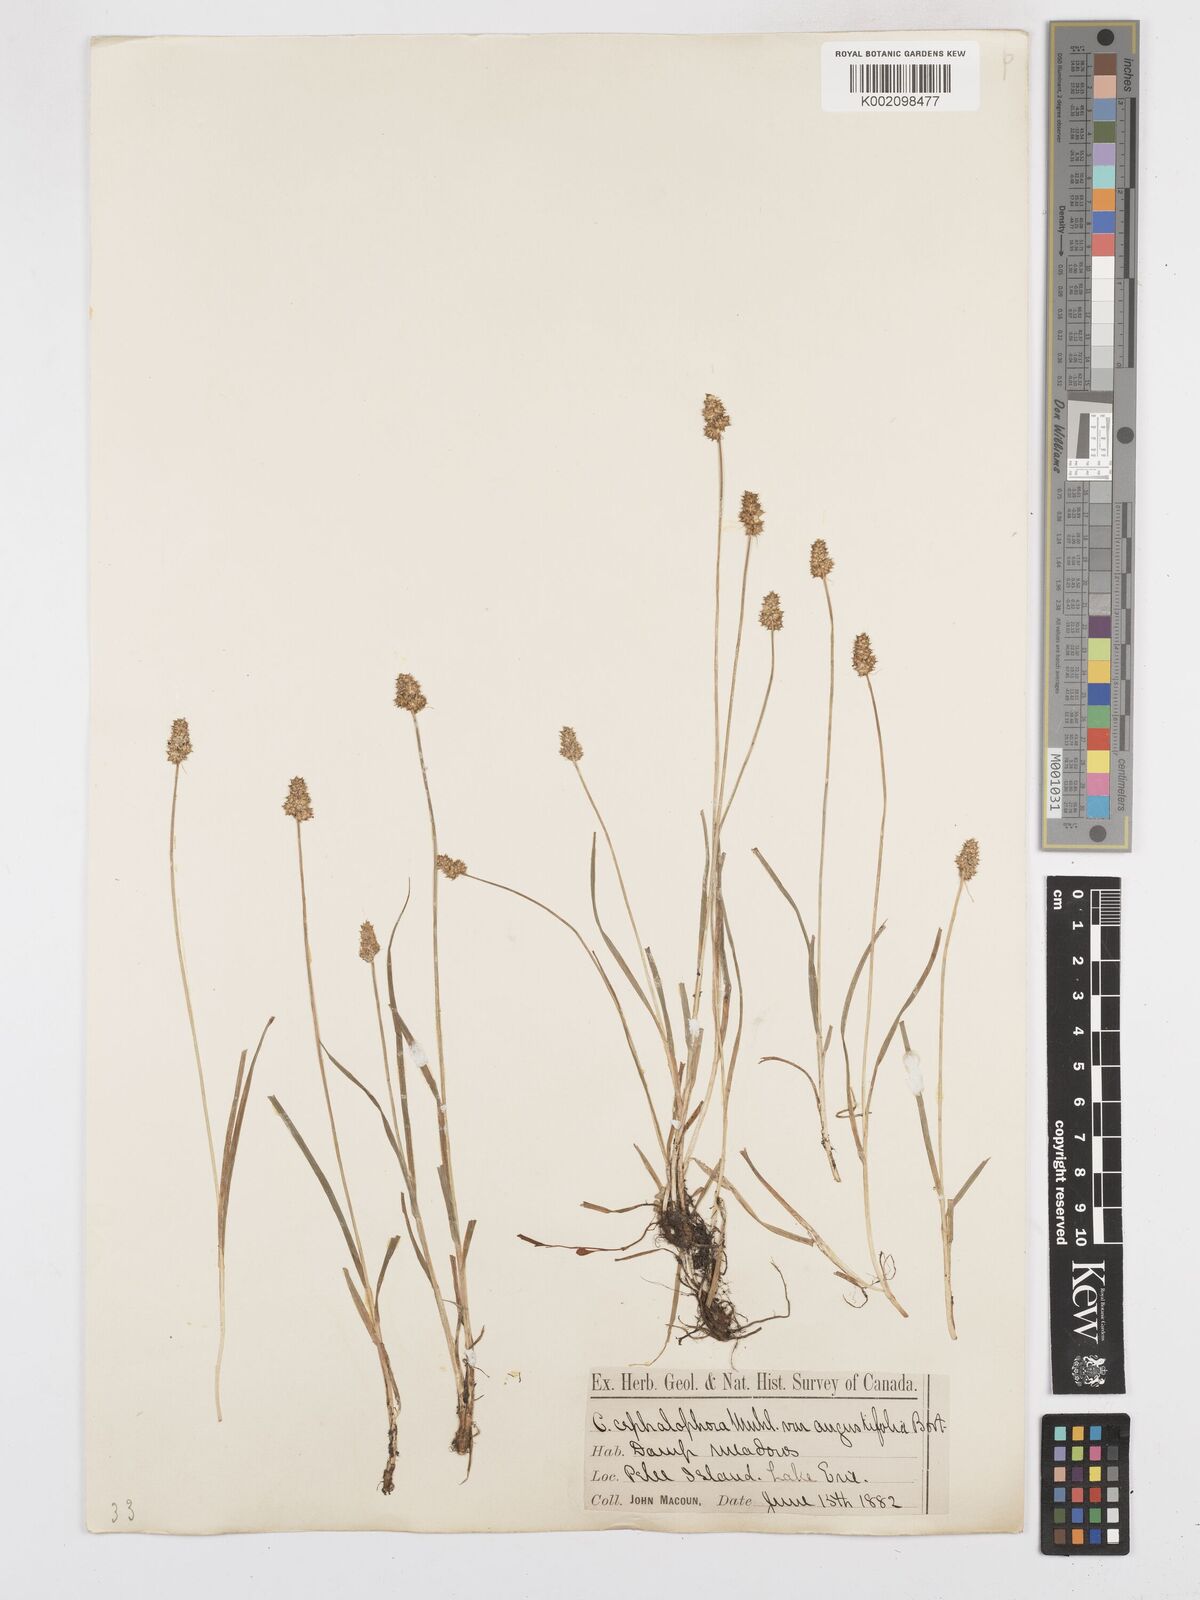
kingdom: Plantae
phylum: Tracheophyta
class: Liliopsida
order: Poales
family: Cyperaceae
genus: Carex
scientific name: Carex cephalophora
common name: Oval-headed sedge
